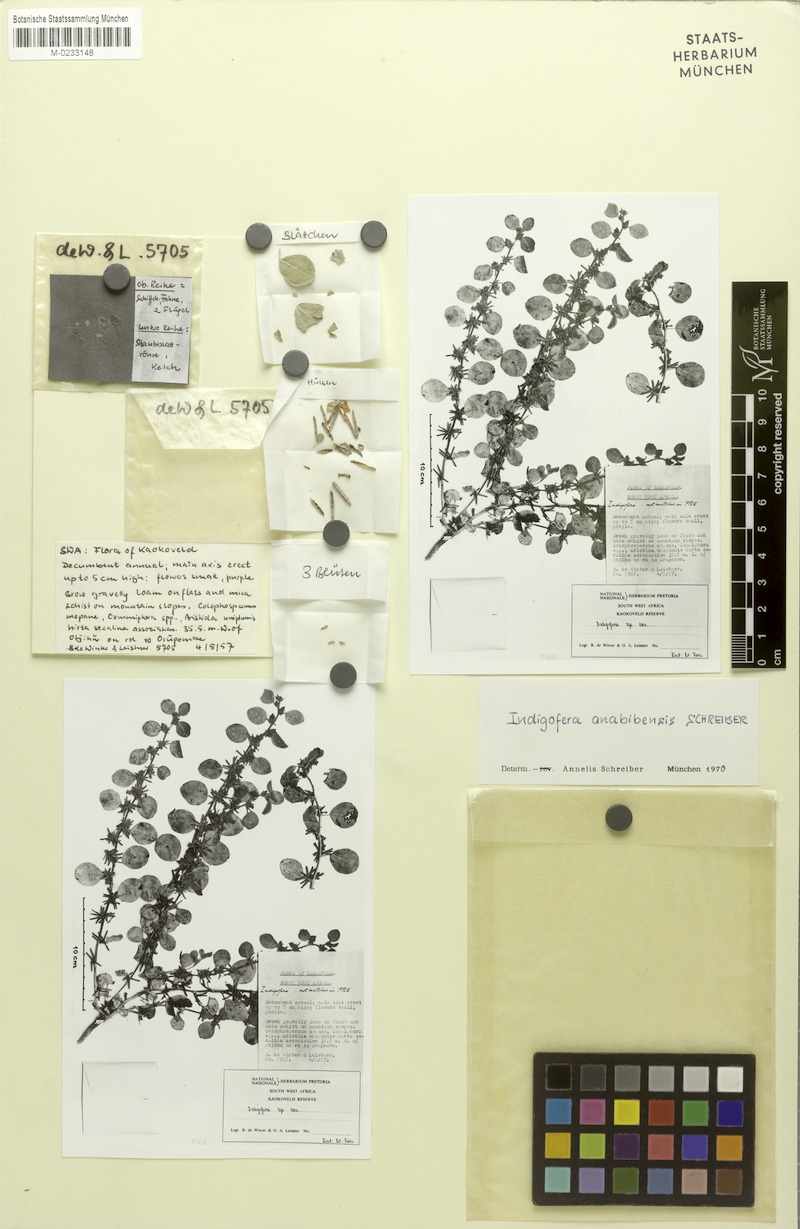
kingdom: Plantae
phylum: Tracheophyta
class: Magnoliopsida
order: Fabales
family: Fabaceae
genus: Indigofera
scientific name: Indigofera anabibensis
